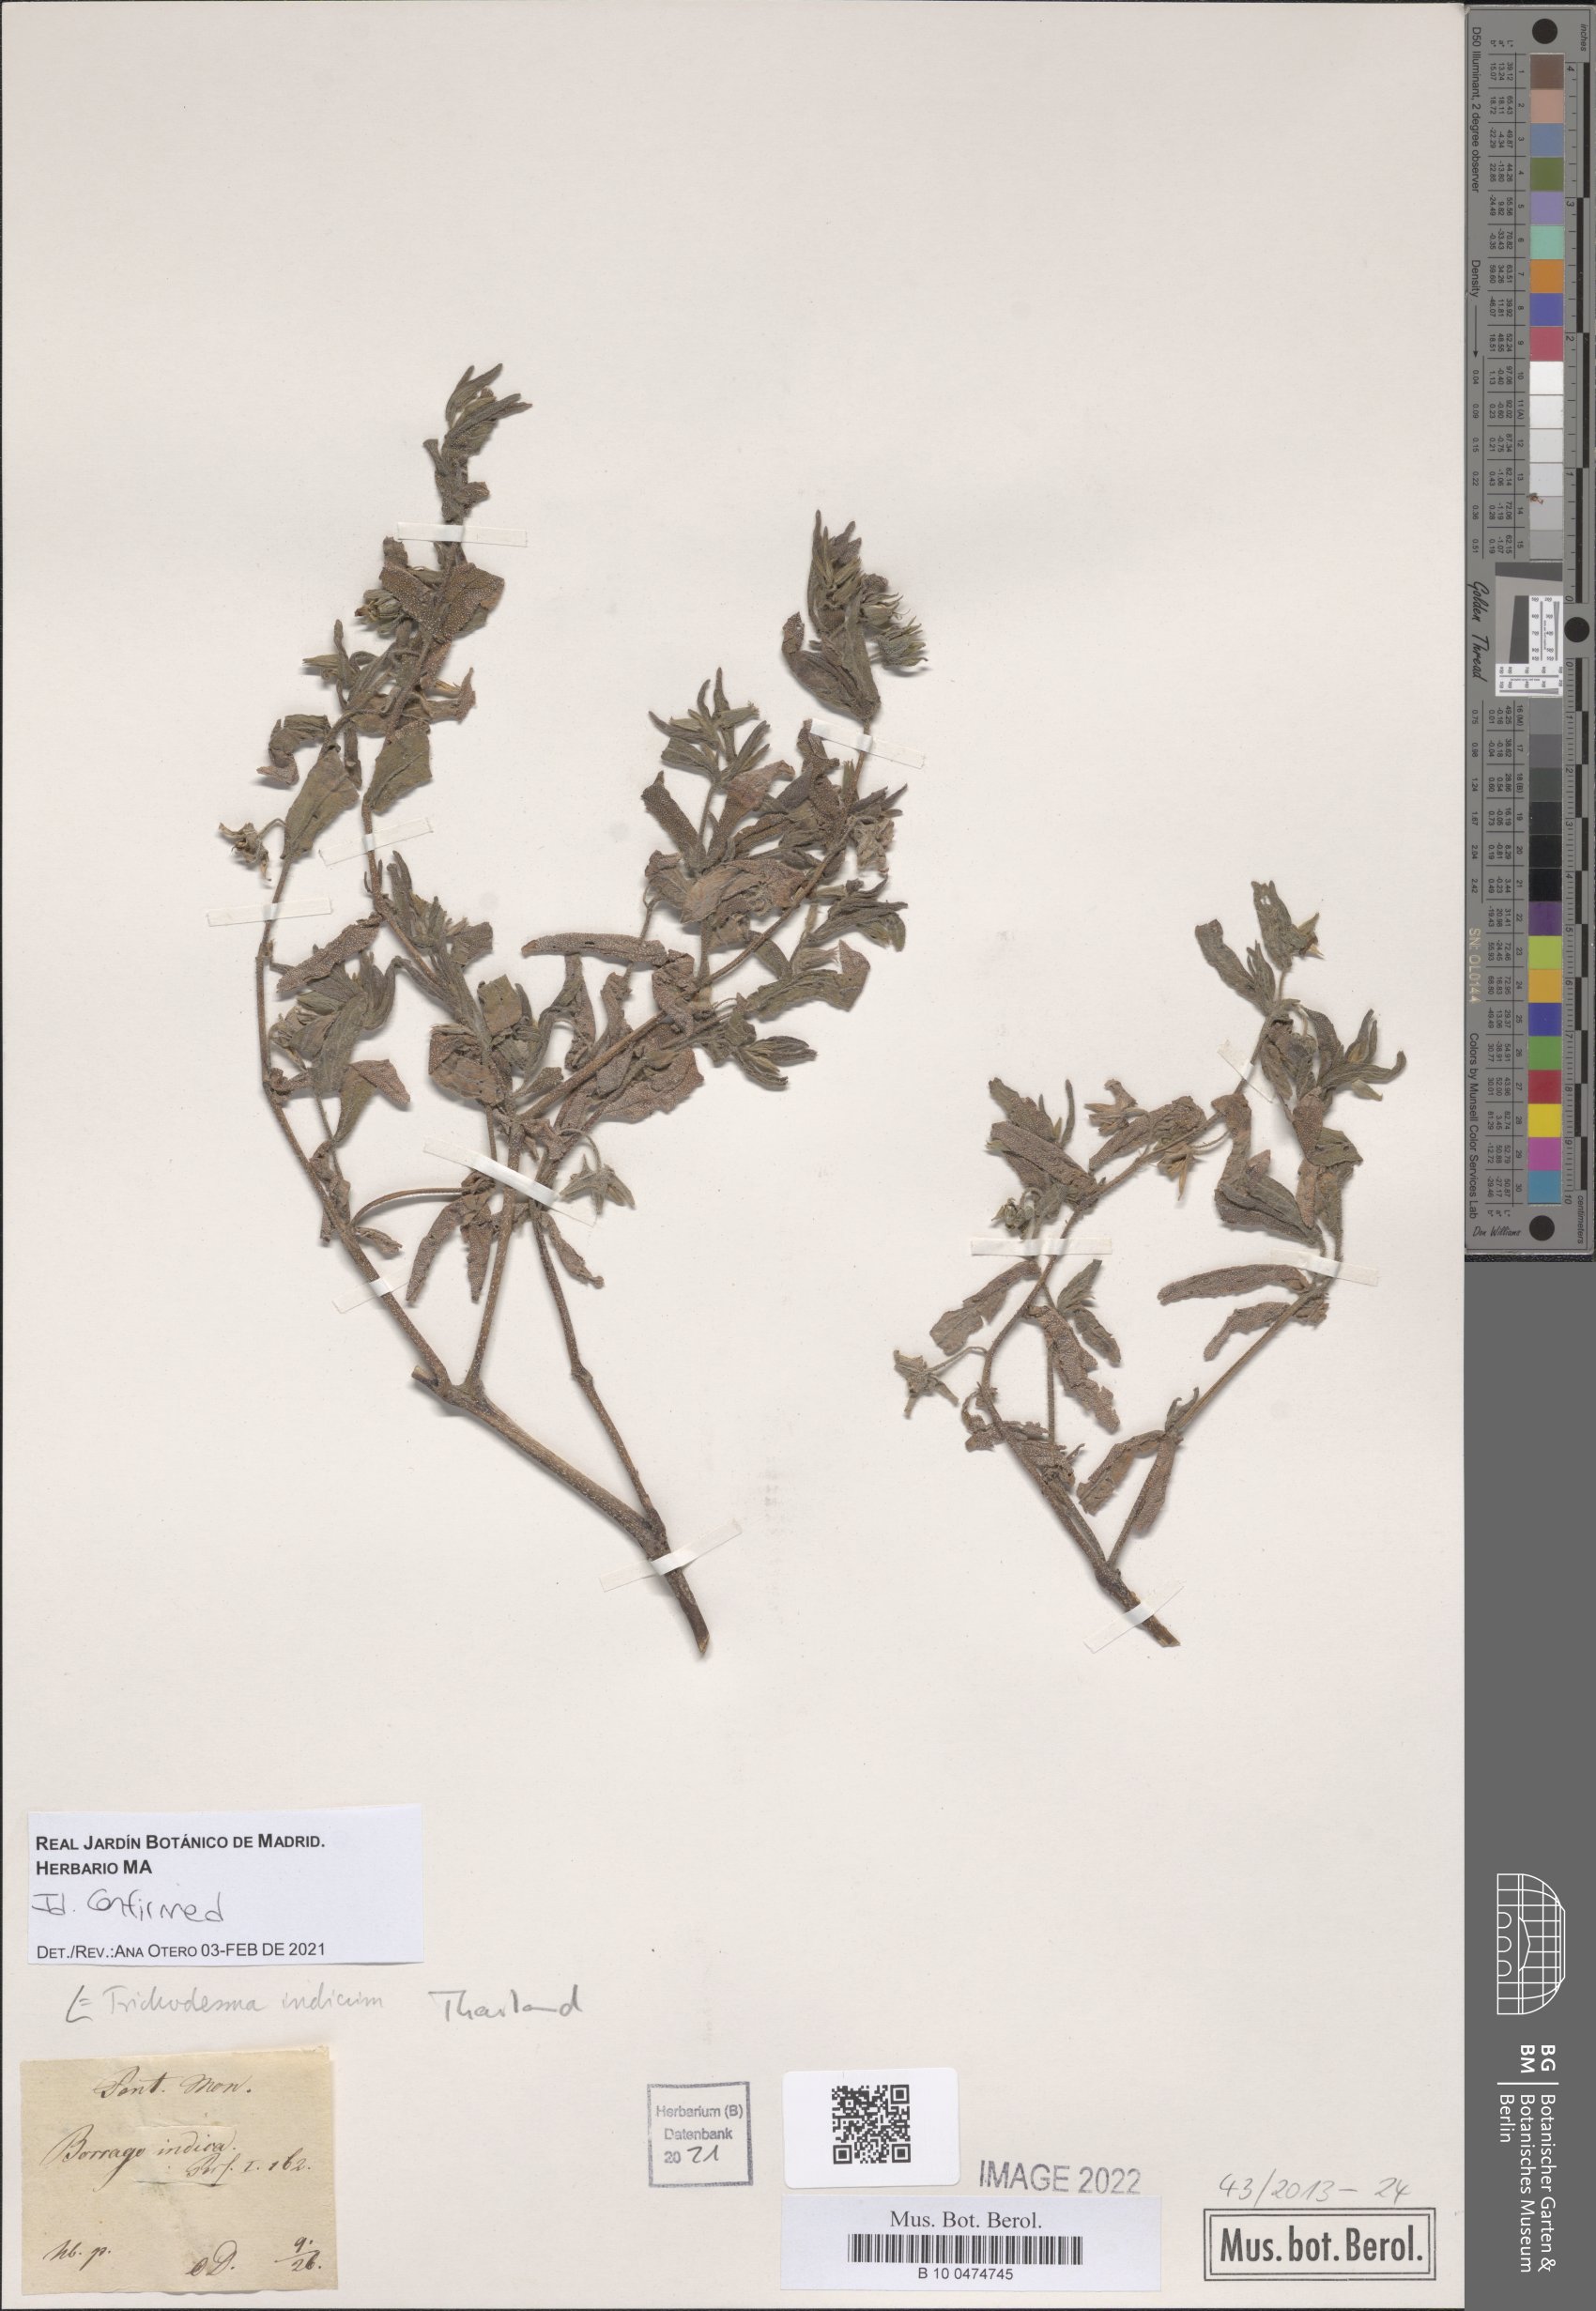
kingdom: Plantae
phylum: Tracheophyta
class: Magnoliopsida
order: Boraginales
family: Boraginaceae
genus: Trichodesma
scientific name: Trichodesma indicum
